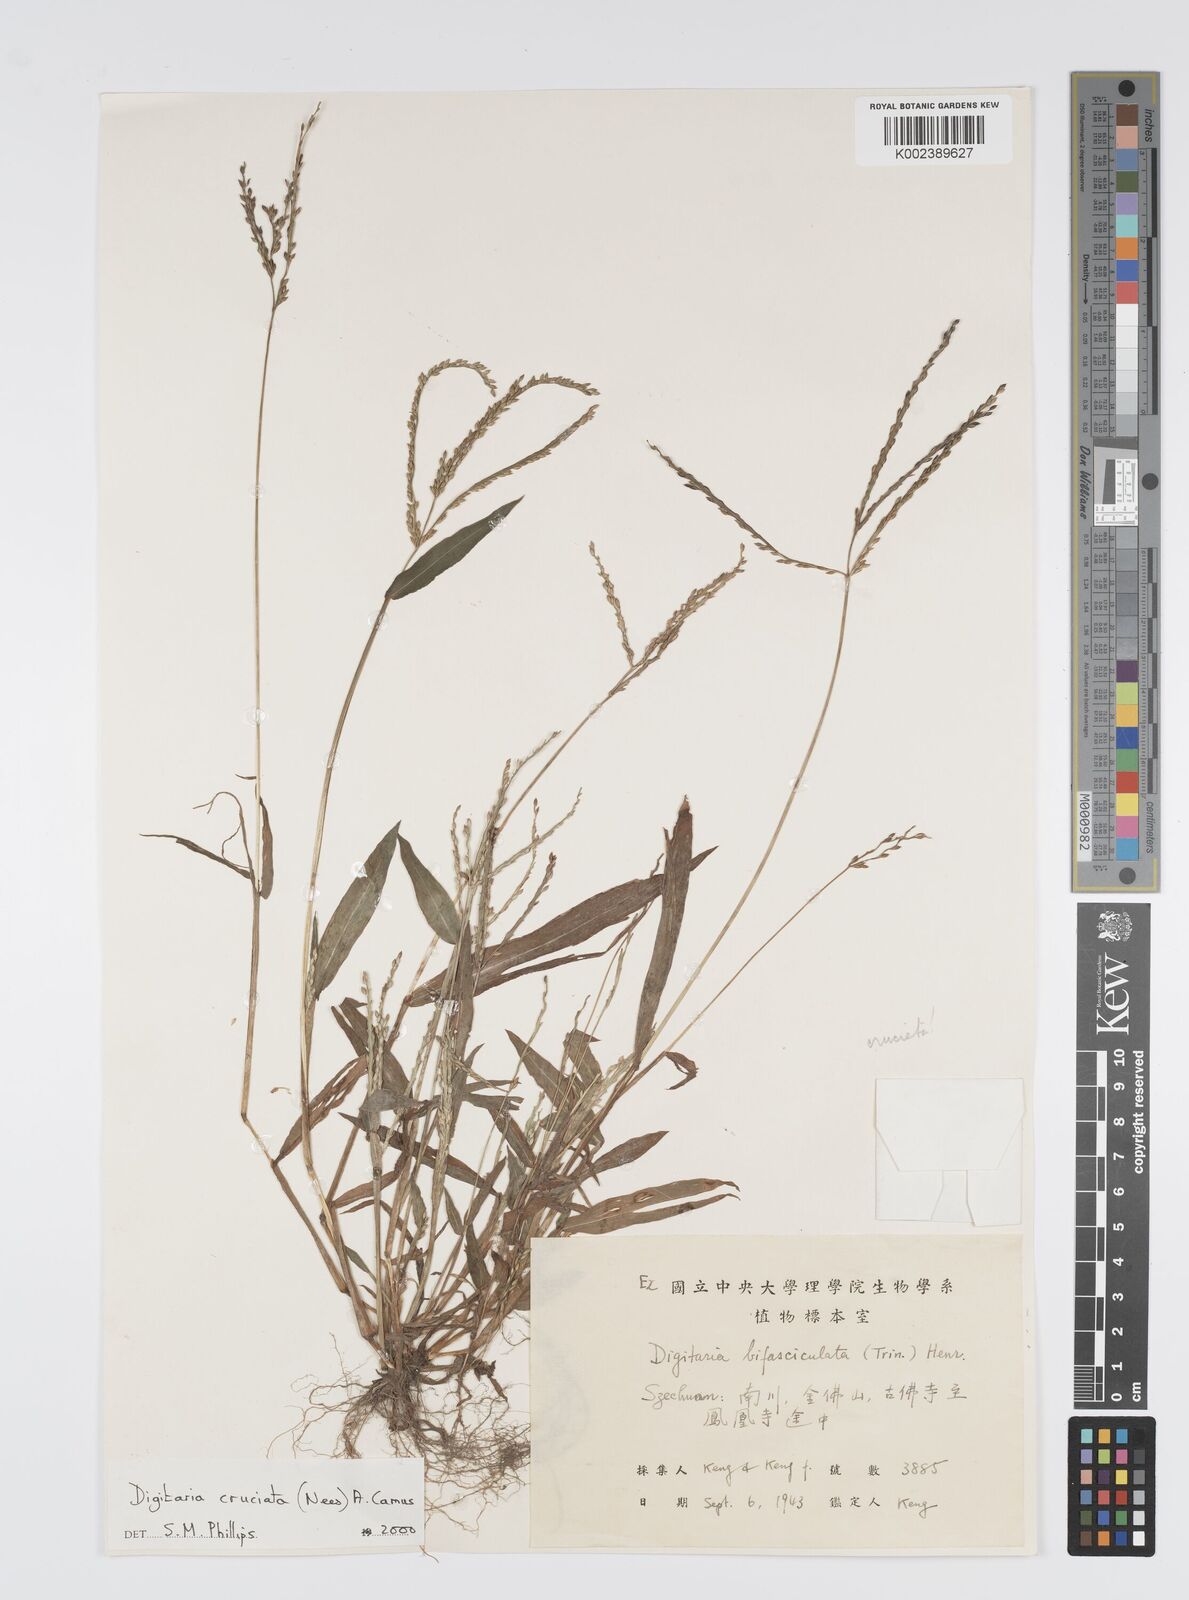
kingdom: Plantae
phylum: Tracheophyta
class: Liliopsida
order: Poales
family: Poaceae
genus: Digitaria
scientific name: Digitaria cruciata
